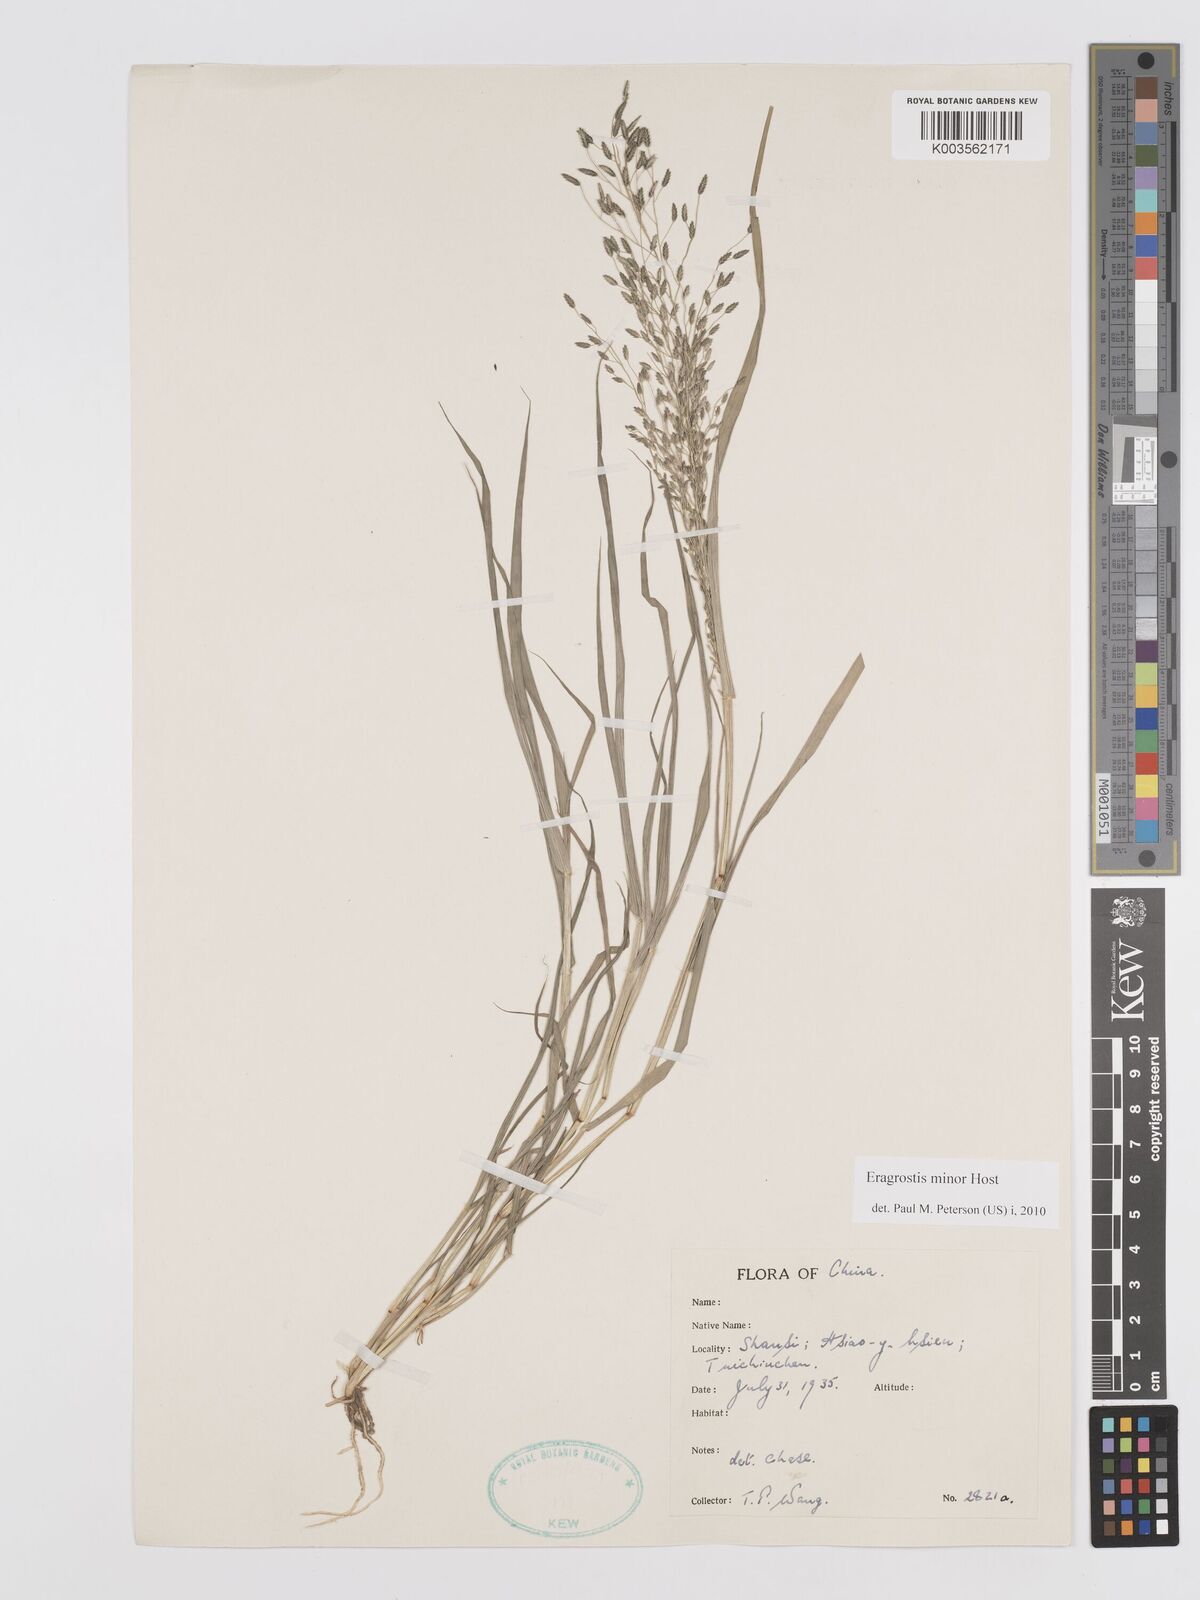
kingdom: Plantae
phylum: Tracheophyta
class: Liliopsida
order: Poales
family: Poaceae
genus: Eragrostis
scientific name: Eragrostis minor
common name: Small love-grass
